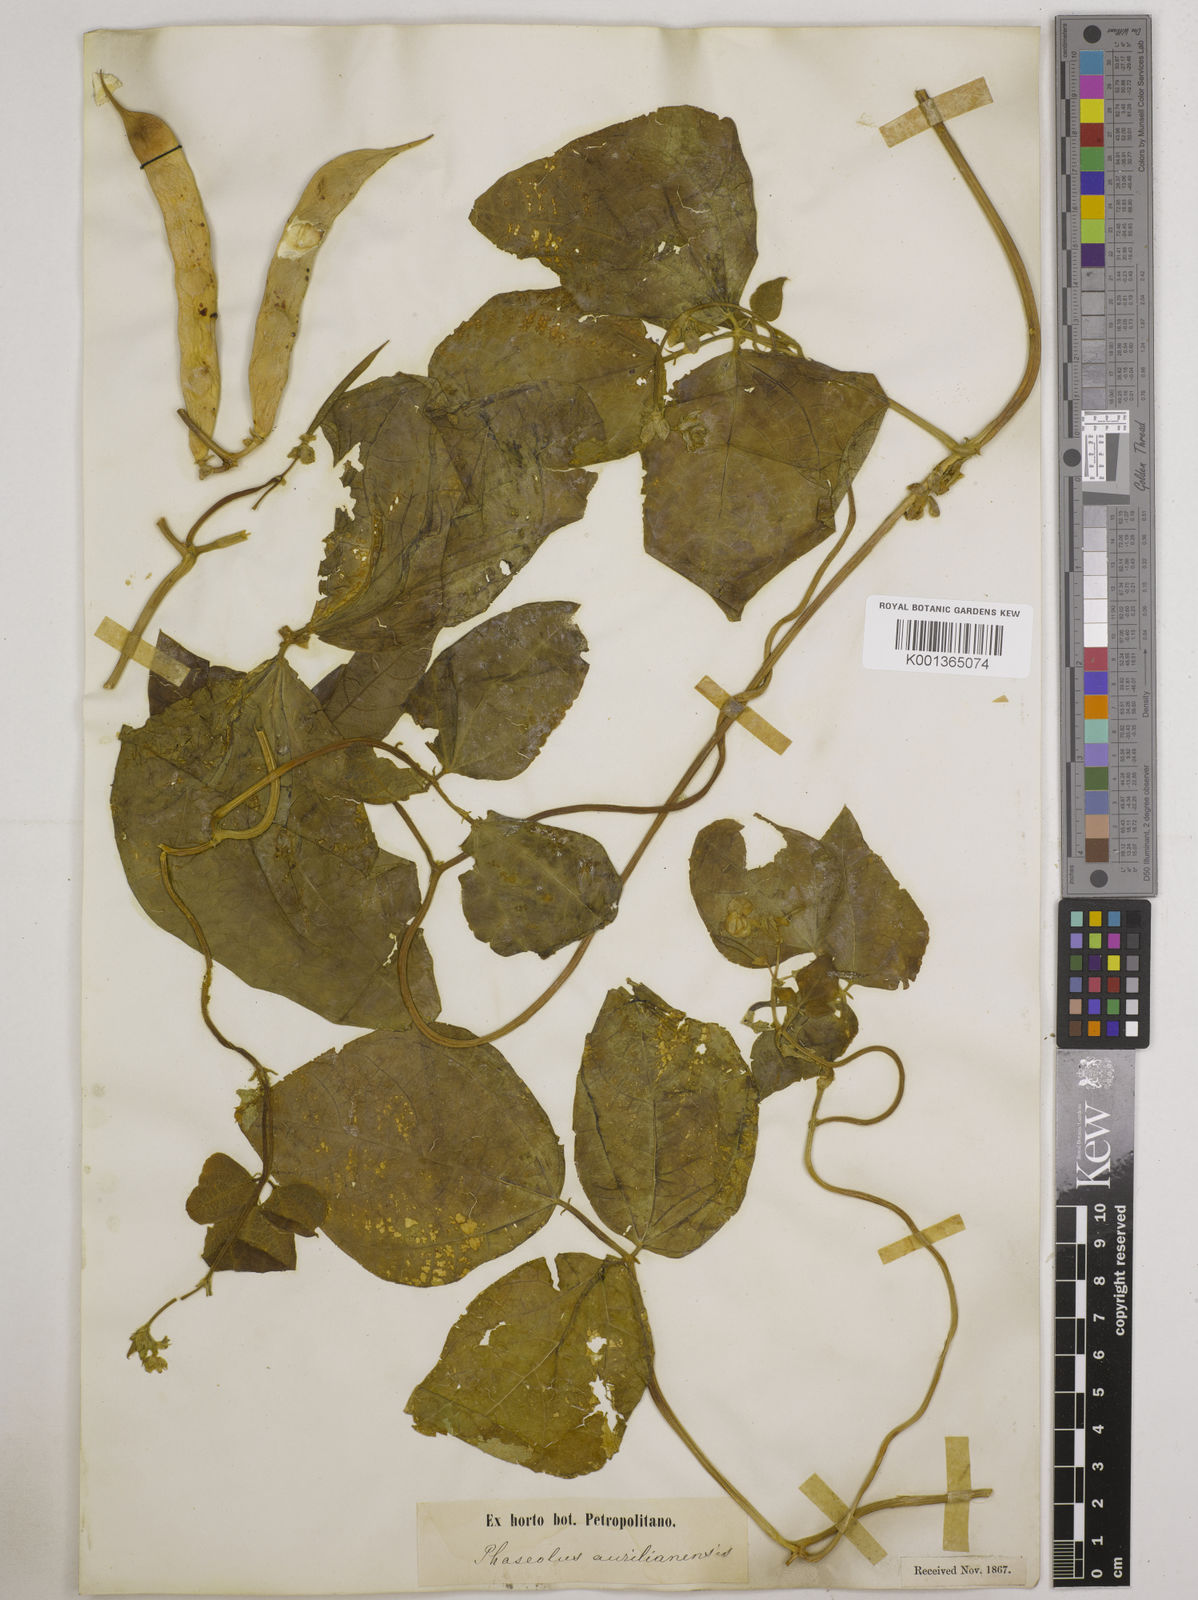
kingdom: Plantae
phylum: Tracheophyta
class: Magnoliopsida
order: Fabales
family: Fabaceae
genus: Phaseolus
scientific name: Phaseolus vulgaris
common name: Bean
